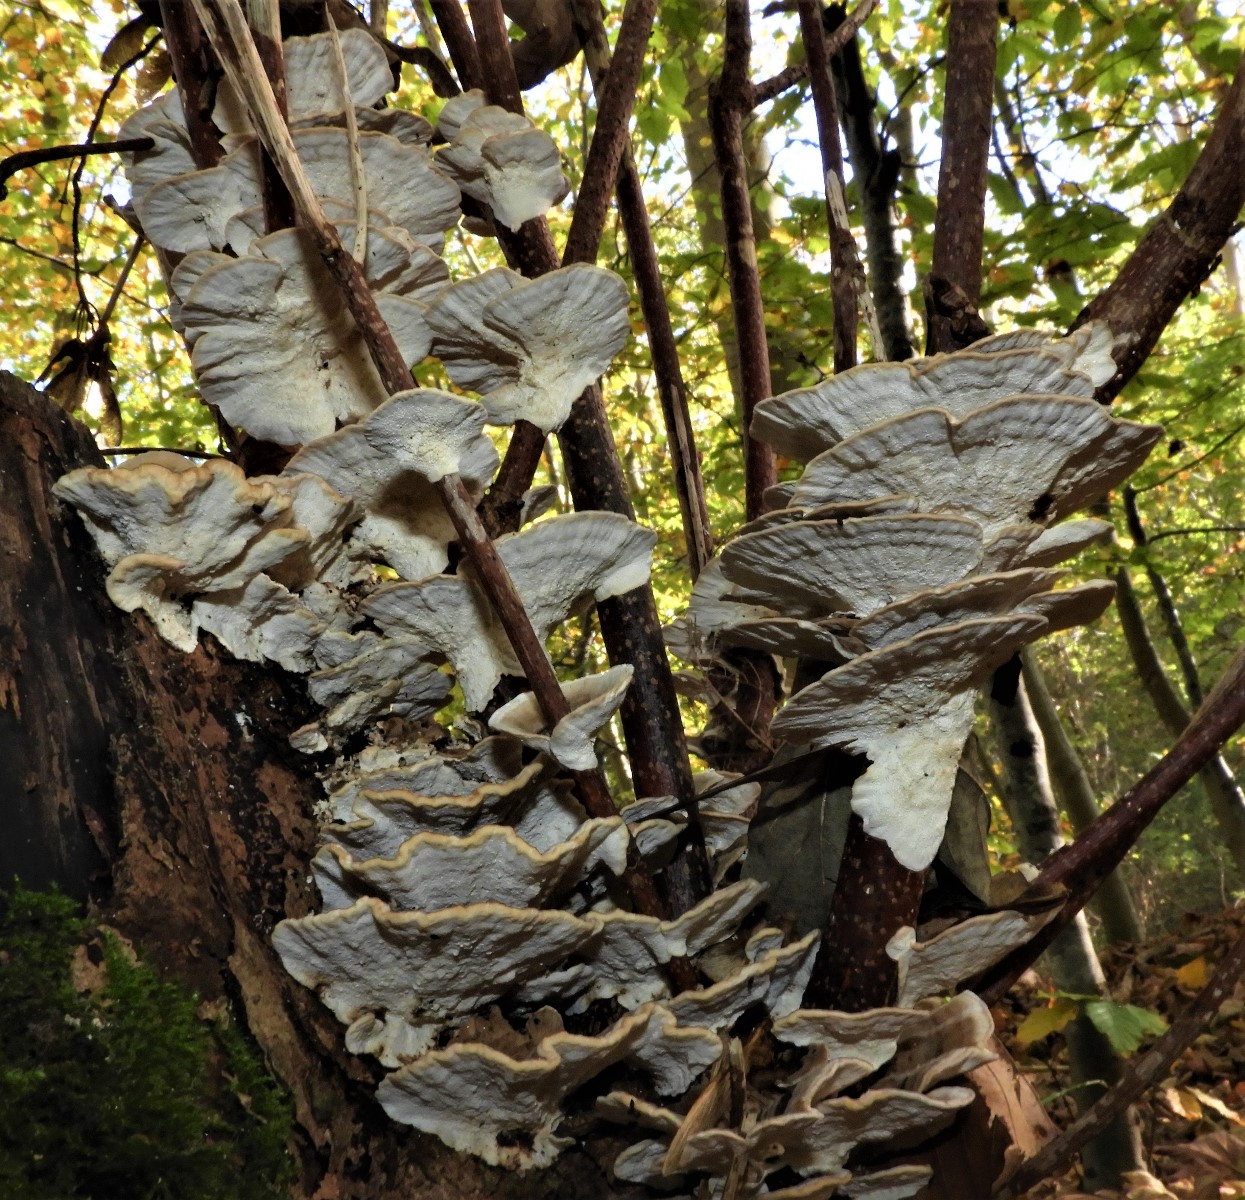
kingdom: Fungi
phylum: Basidiomycota
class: Agaricomycetes
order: Polyporales
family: Polyporaceae
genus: Trametes
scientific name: Trametes versicolor
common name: broget læderporesvamp
